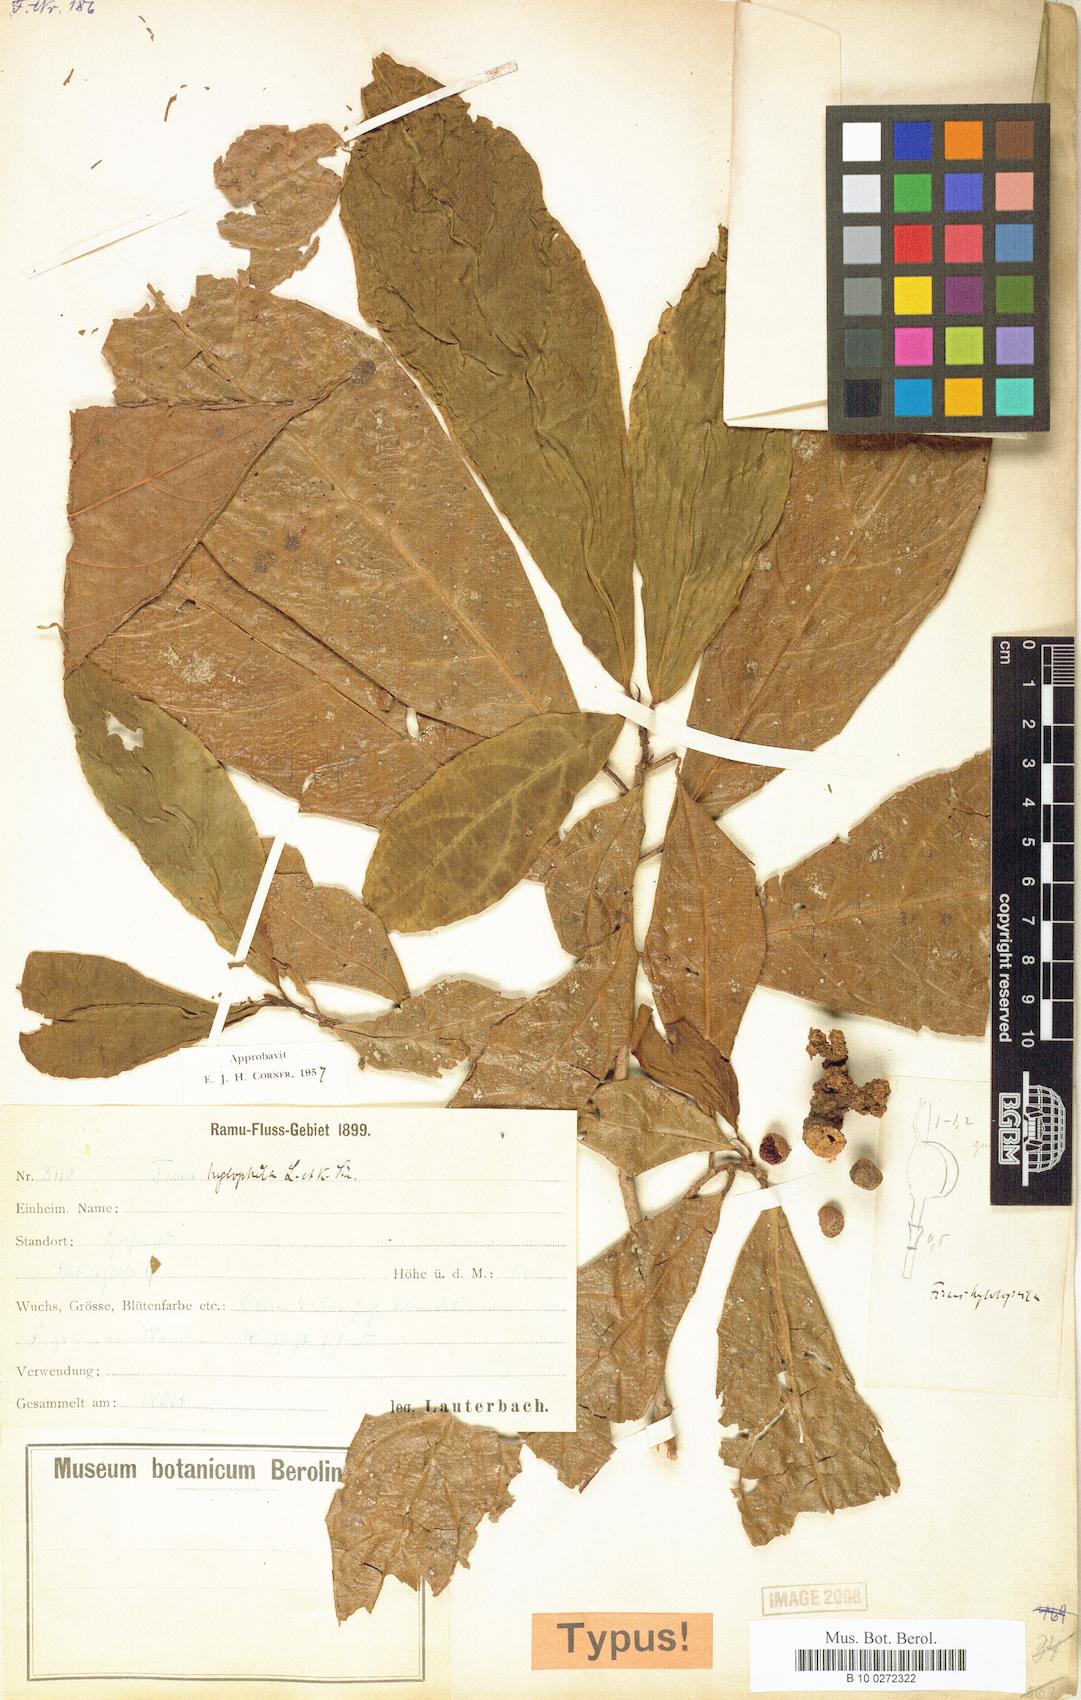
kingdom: Plantae
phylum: Tracheophyta
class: Magnoliopsida
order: Rosales
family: Moraceae
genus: Ficus
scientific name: Ficus ribes
